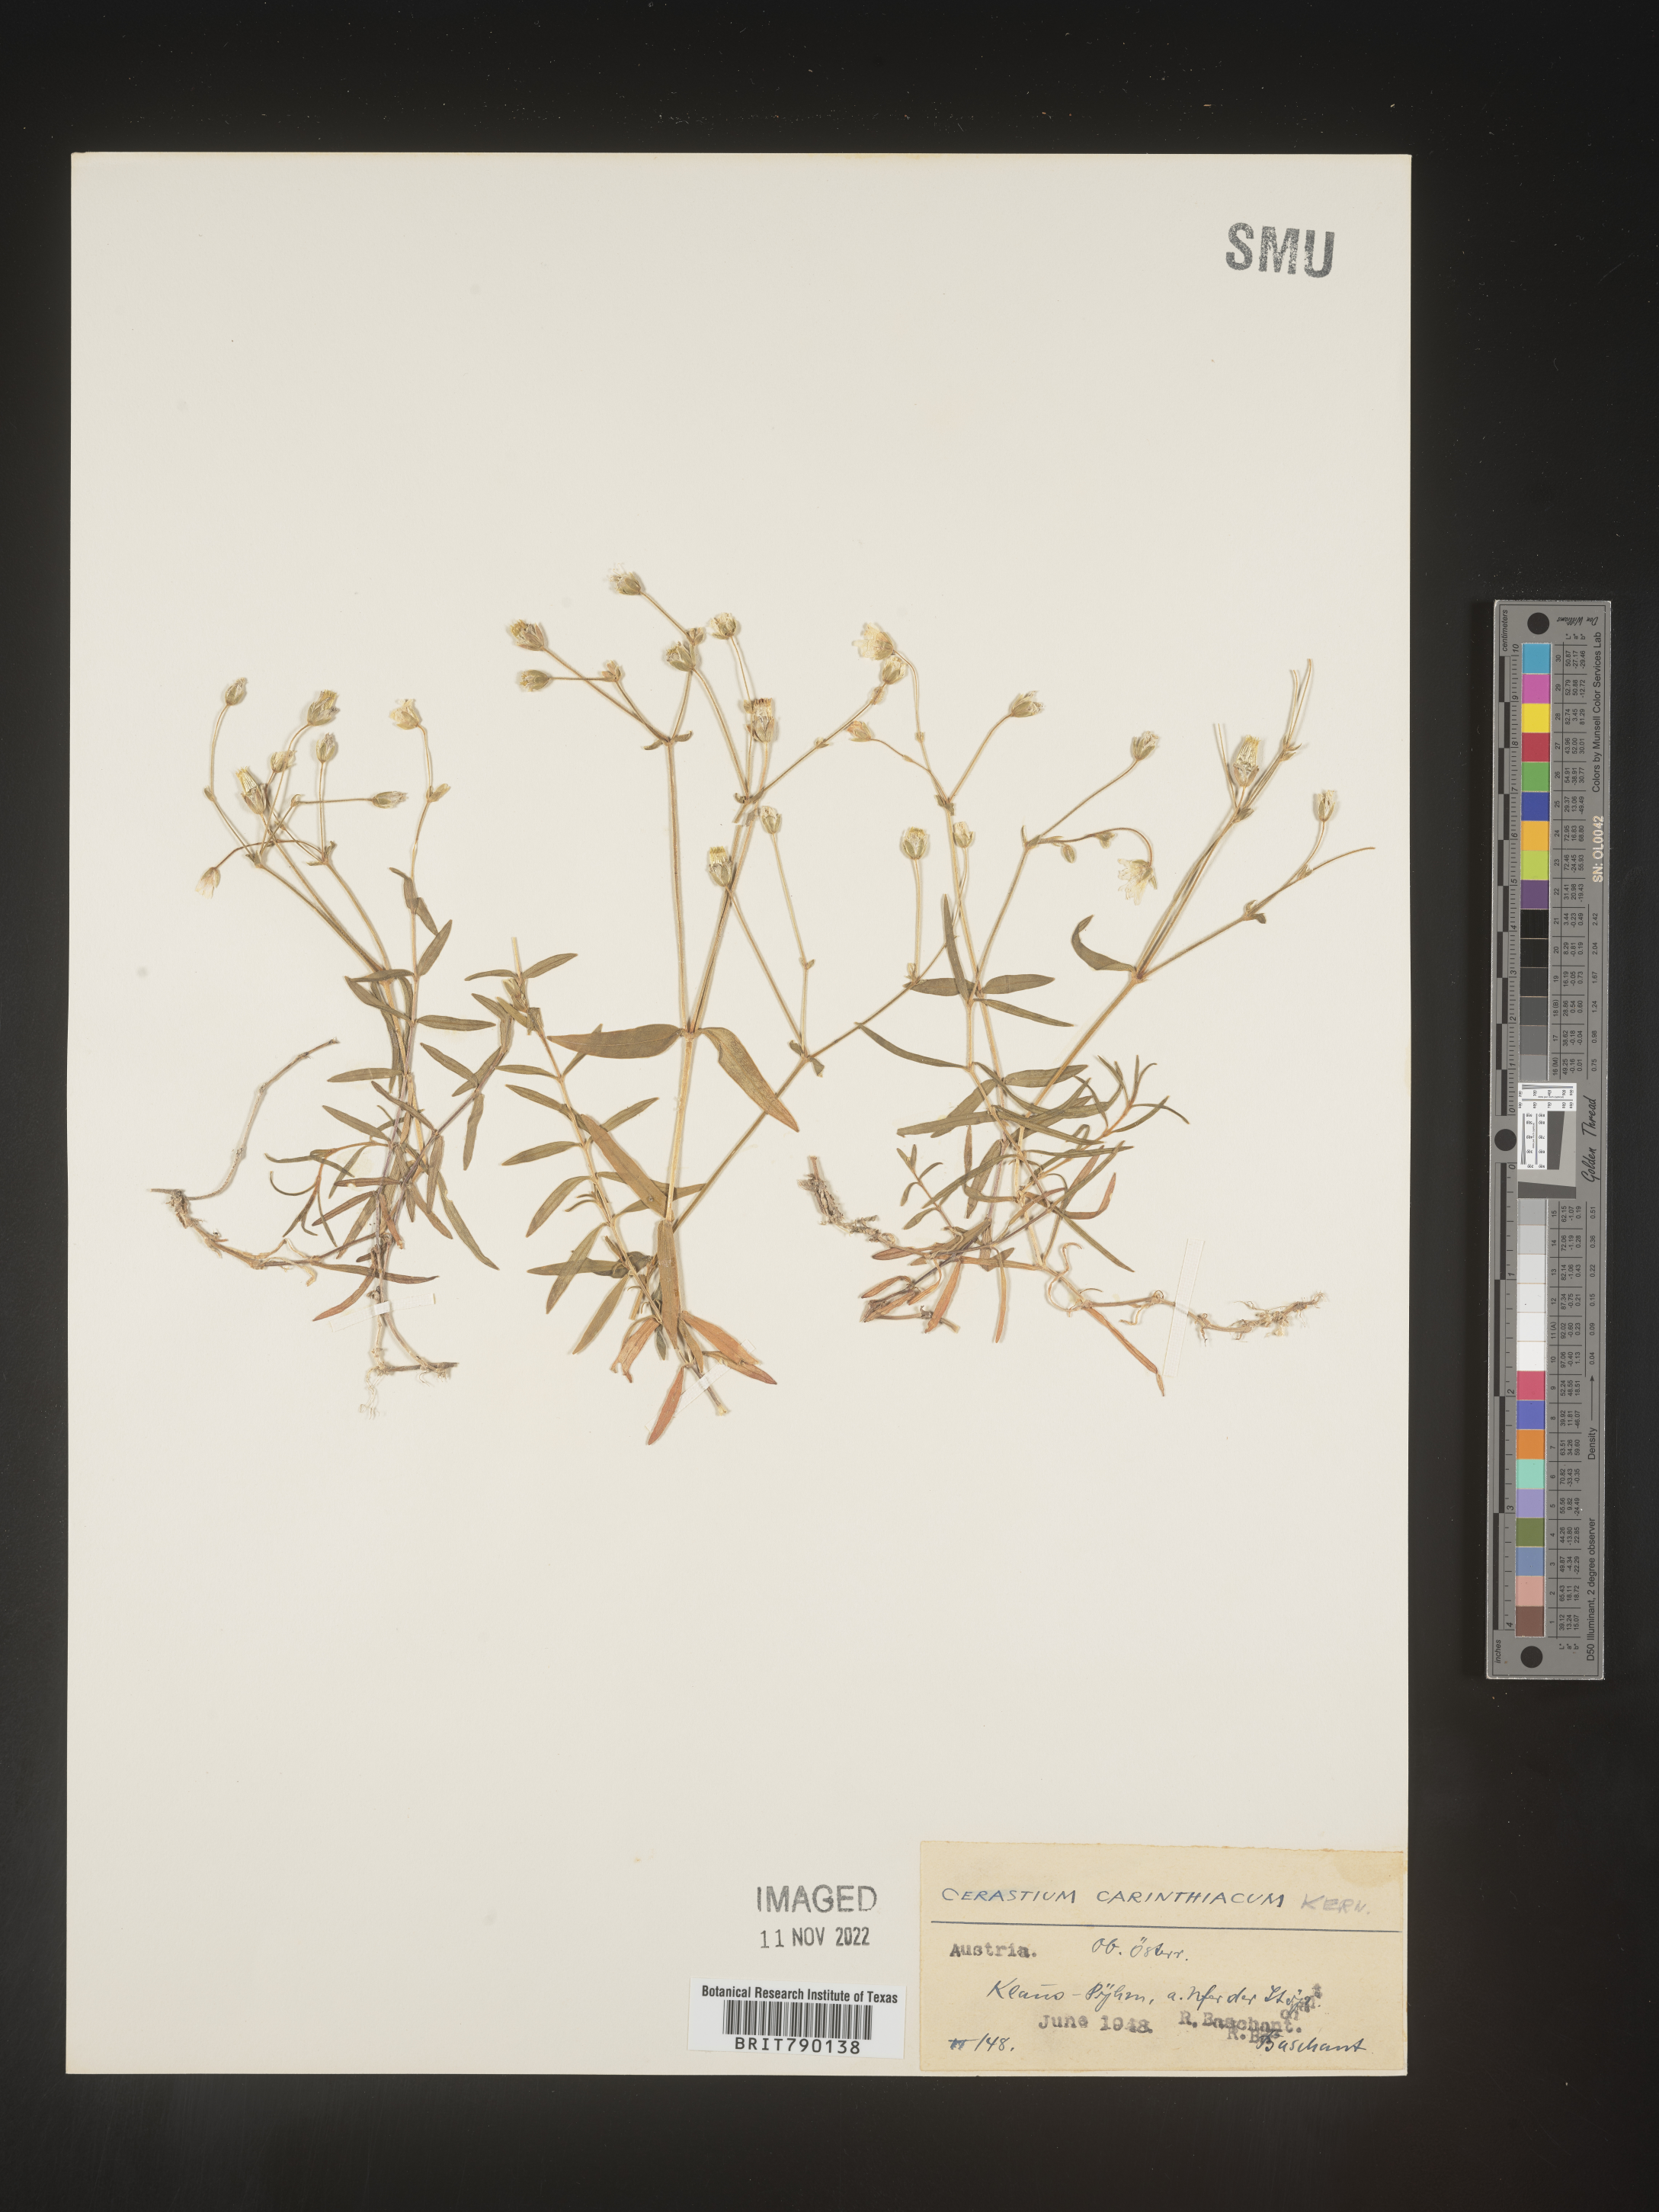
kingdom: Plantae
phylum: Tracheophyta
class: Magnoliopsida
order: Caryophyllales
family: Caryophyllaceae
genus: Cerastium
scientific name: Cerastium
